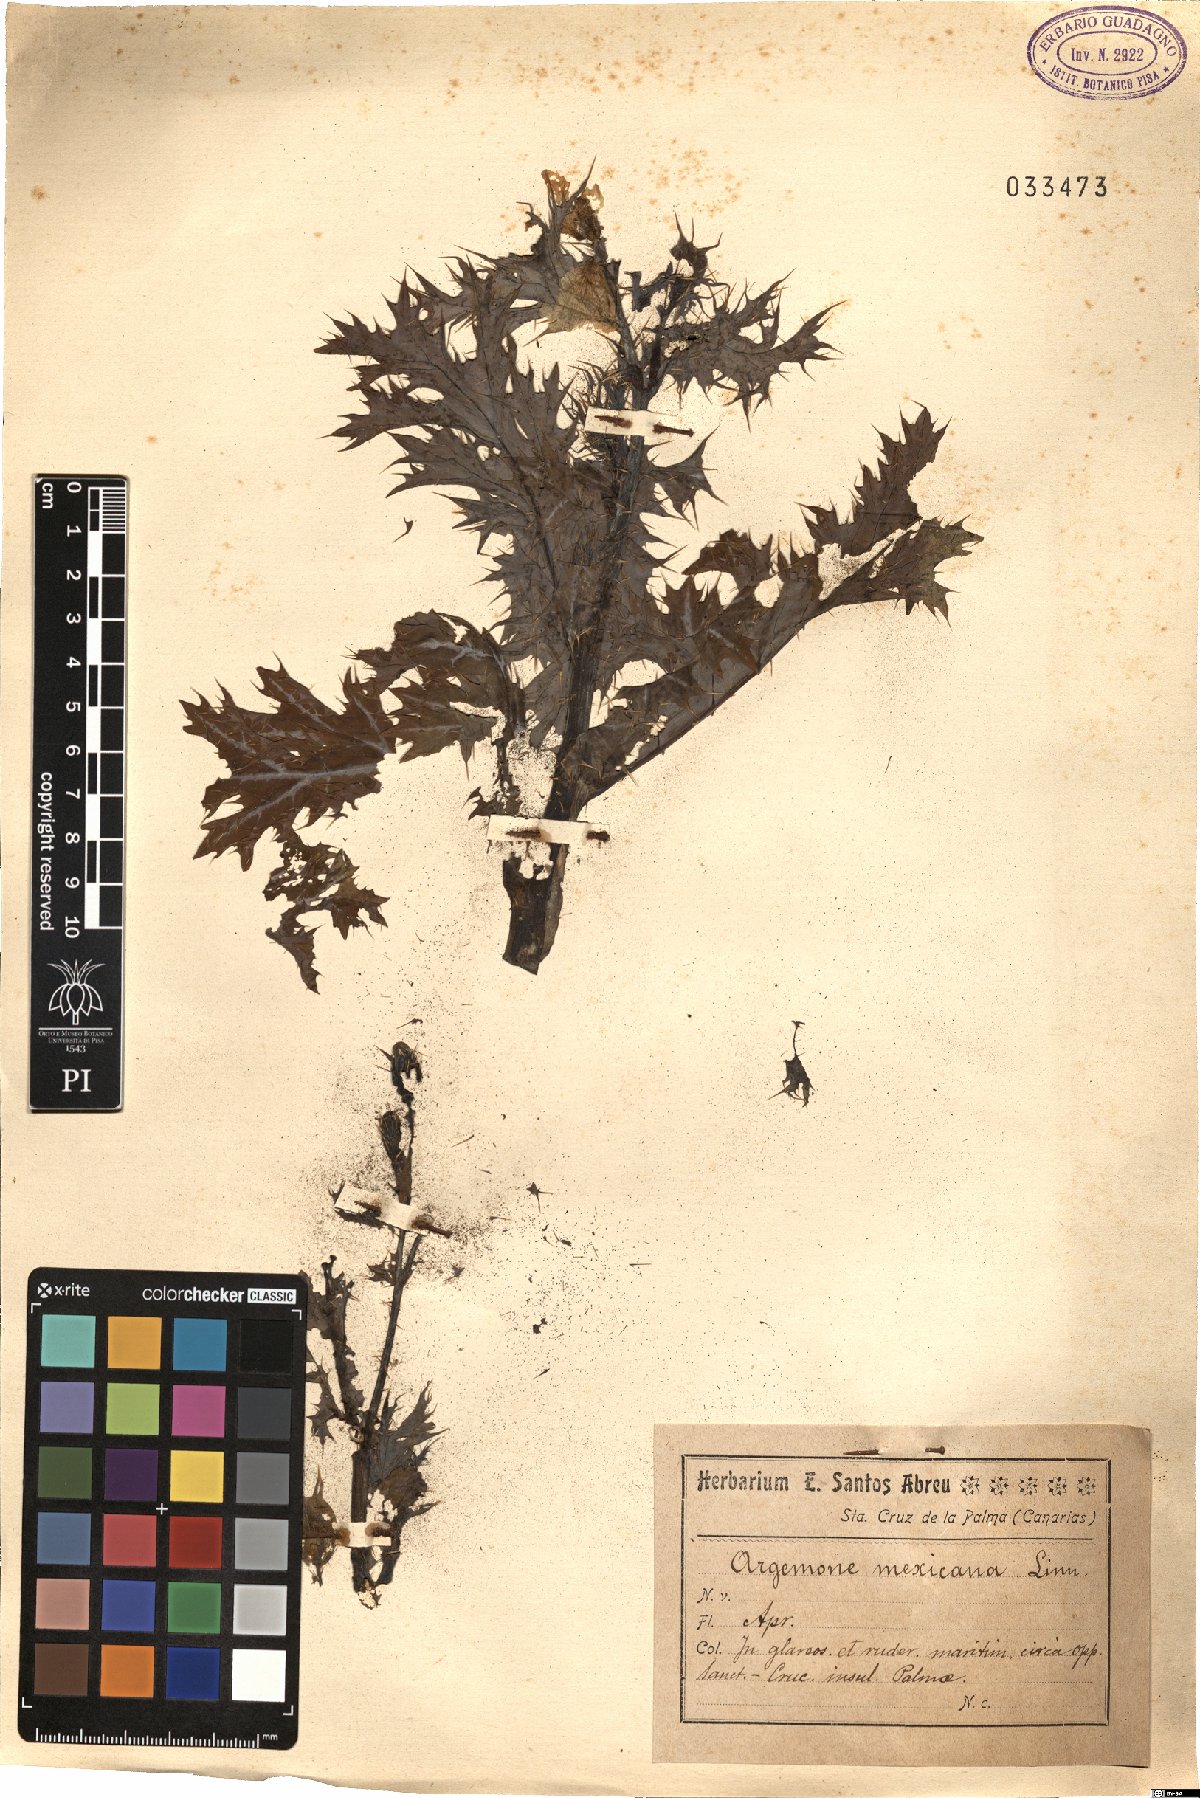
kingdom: Plantae
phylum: Tracheophyta
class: Magnoliopsida
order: Ranunculales
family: Papaveraceae
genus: Argemone
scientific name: Argemone mexicana
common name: Mexican poppy
